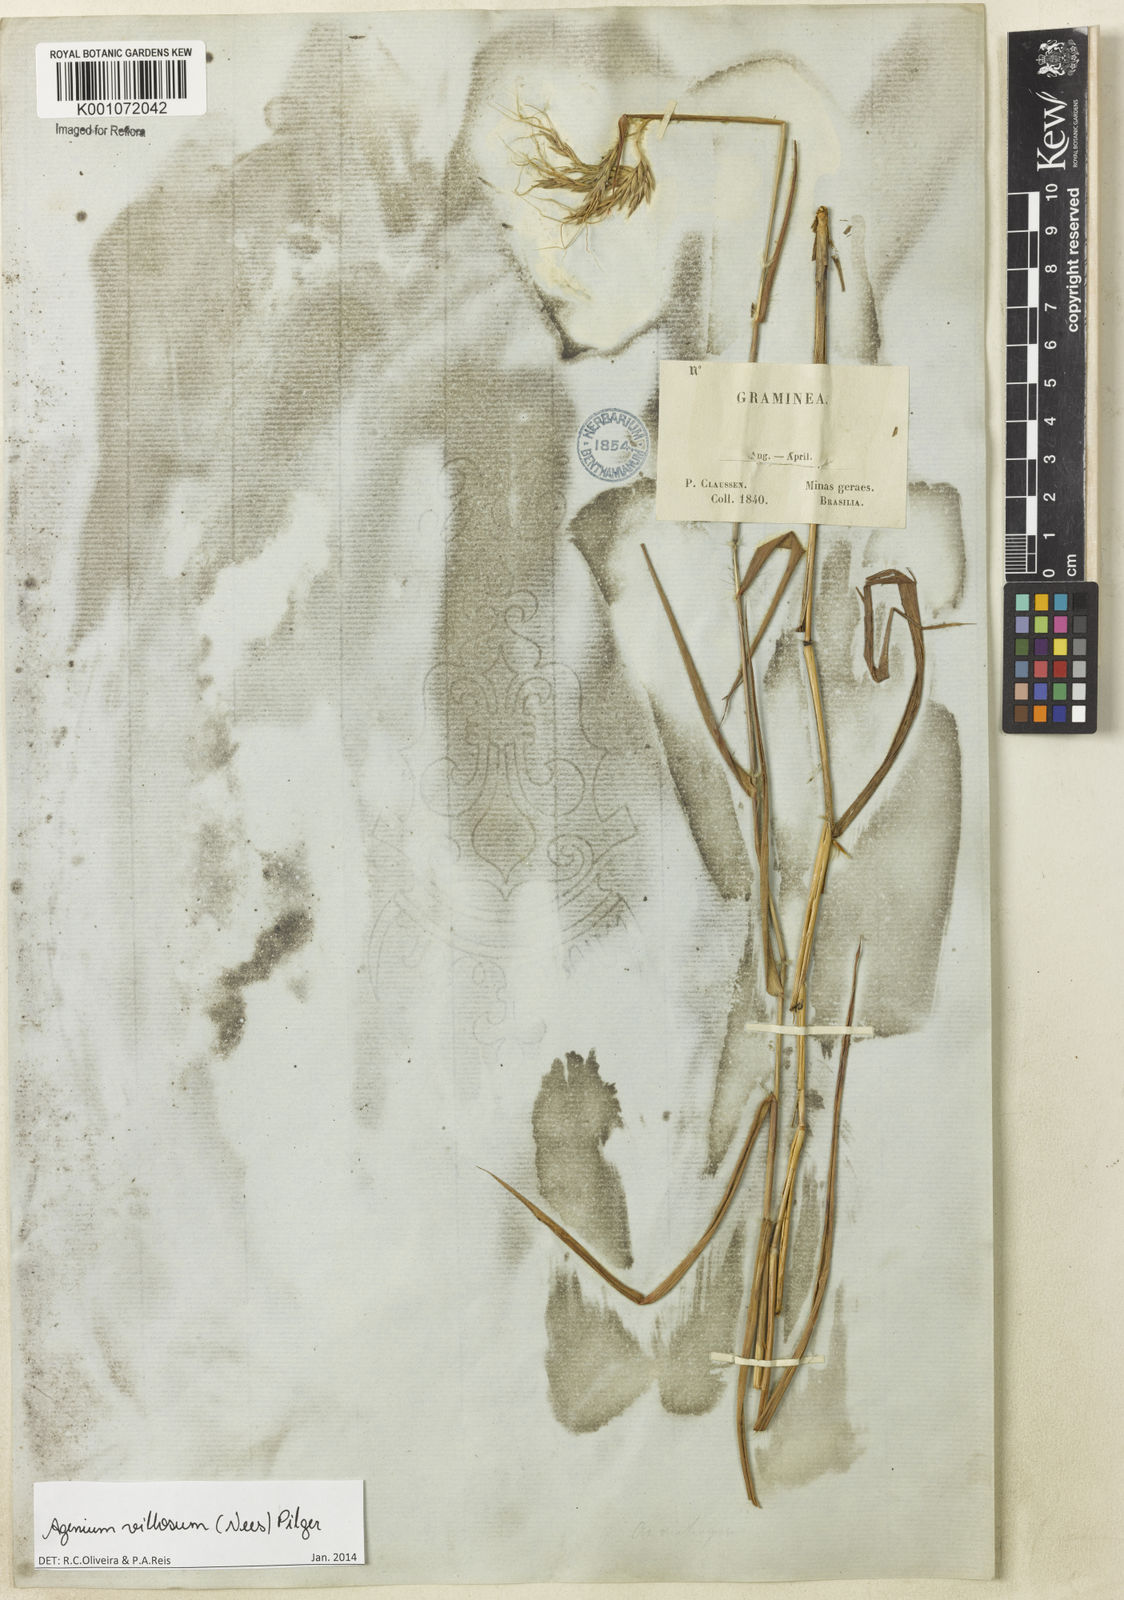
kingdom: Plantae
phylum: Tracheophyta
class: Liliopsida
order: Poales
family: Poaceae
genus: Agenium
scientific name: Agenium villosum
